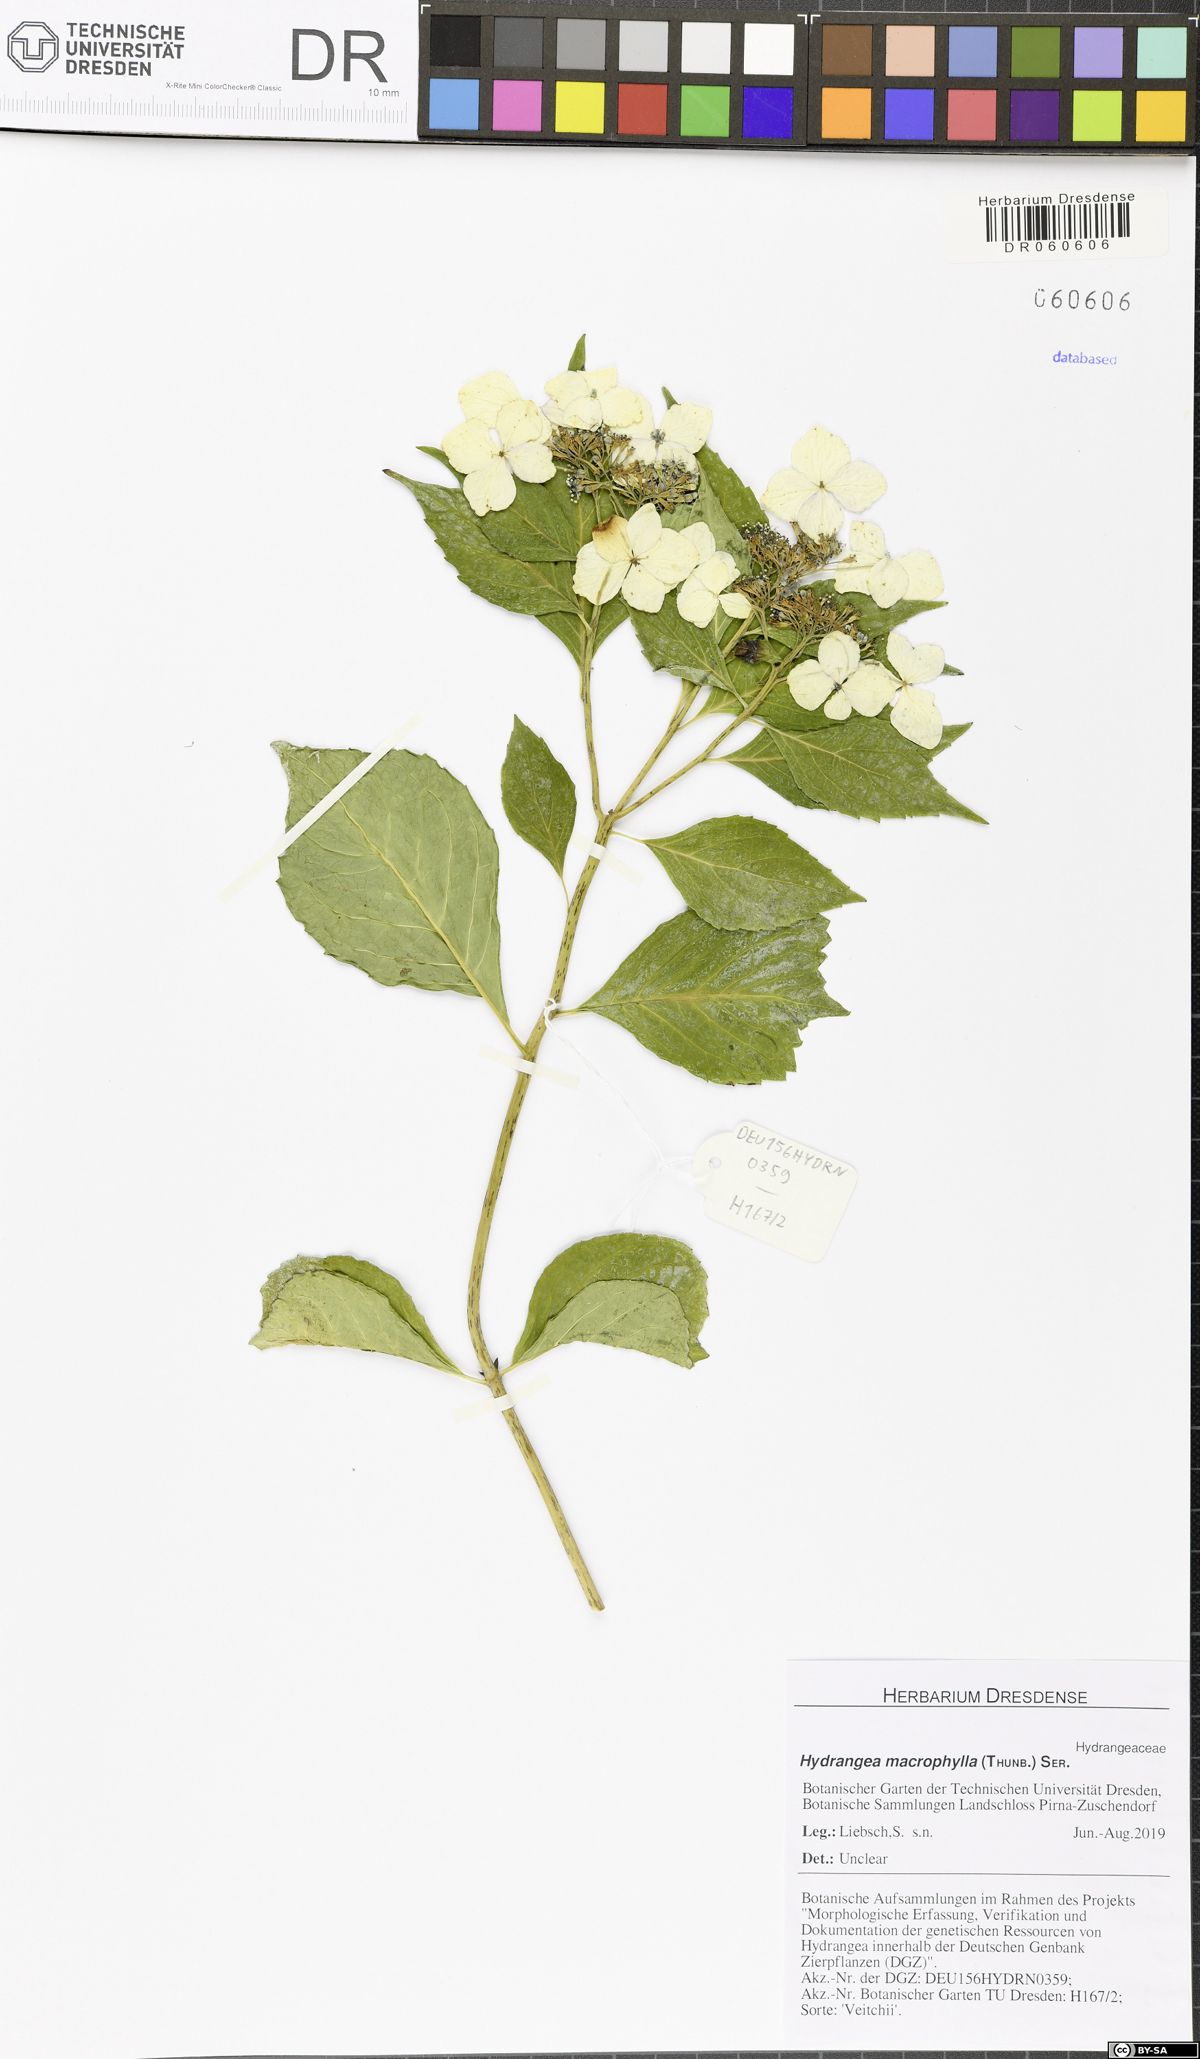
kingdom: Plantae
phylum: Tracheophyta
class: Magnoliopsida
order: Cornales
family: Hydrangeaceae
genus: Hydrangea
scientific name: Hydrangea macrophylla
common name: Hydrangea
